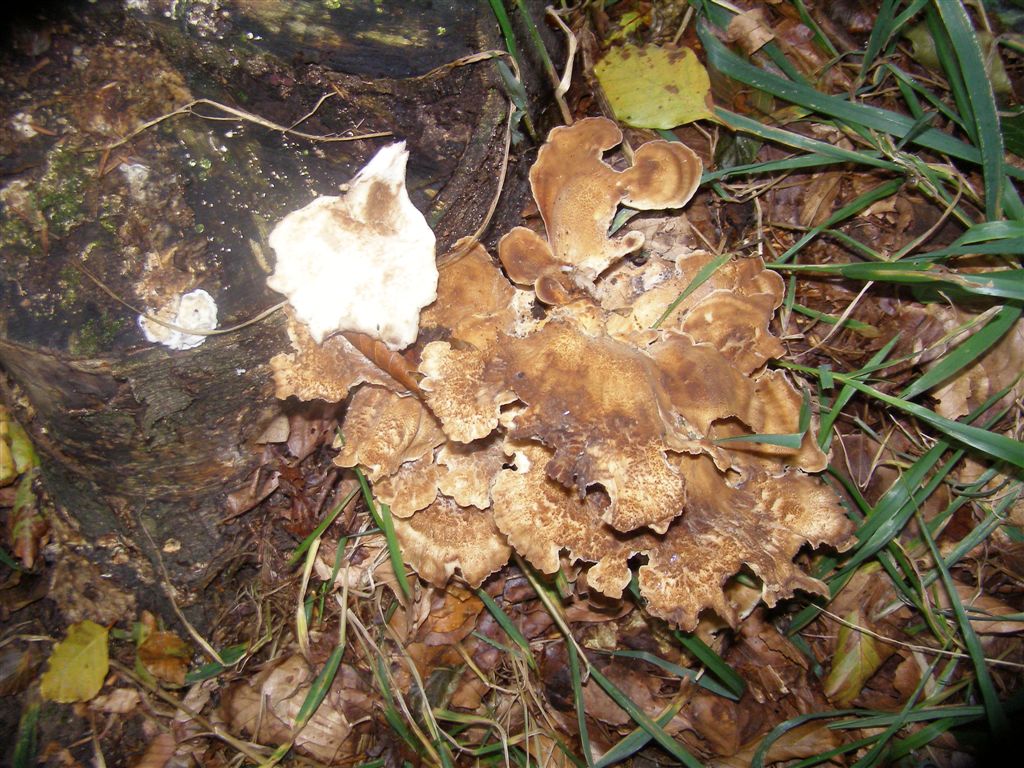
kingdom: Fungi
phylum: Basidiomycota
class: Agaricomycetes
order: Polyporales
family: Meripilaceae
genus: Meripilus
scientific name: Meripilus giganteus
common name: kæmpeporesvamp
